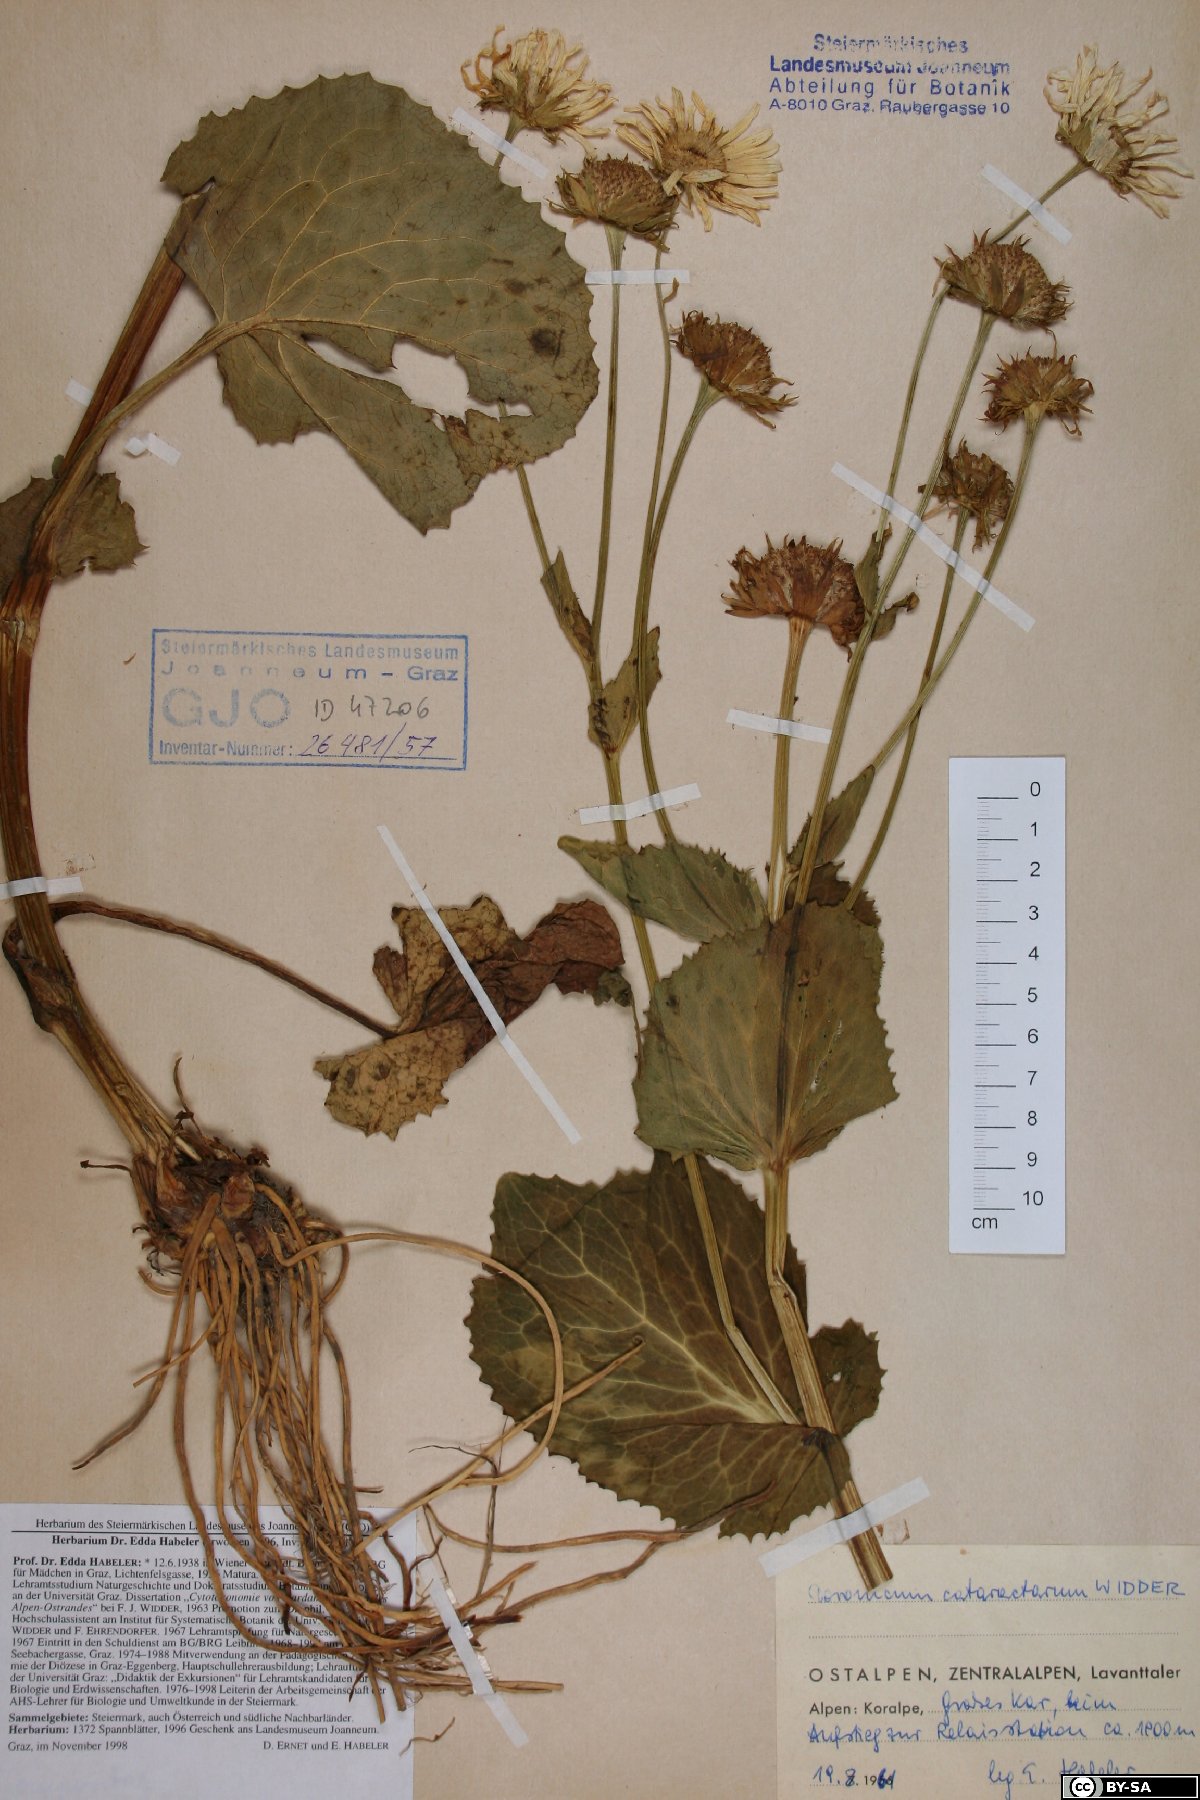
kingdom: Plantae
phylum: Tracheophyta
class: Magnoliopsida
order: Asterales
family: Asteraceae
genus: Doronicum
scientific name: Doronicum cataractarum
